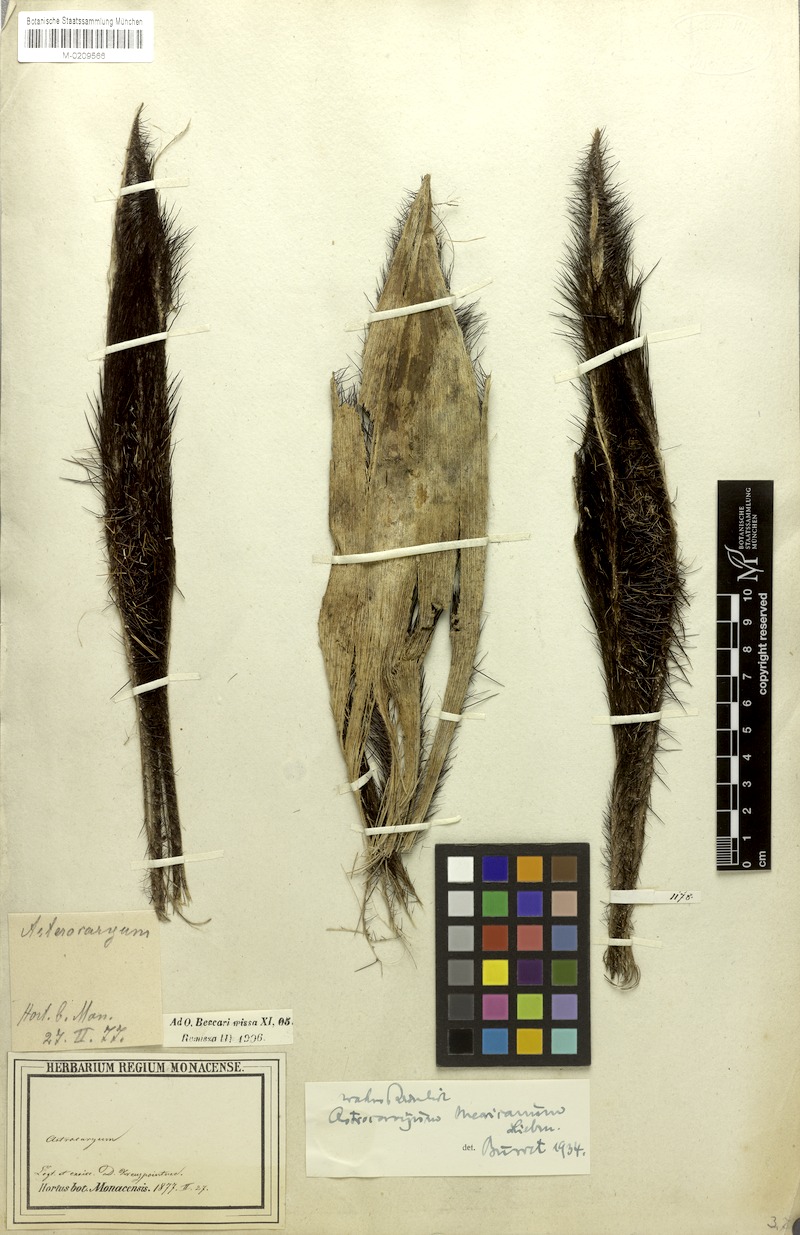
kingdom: Plantae
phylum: Tracheophyta
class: Liliopsida
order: Arecales
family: Arecaceae
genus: Astrocaryum
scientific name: Astrocaryum mexicanum
